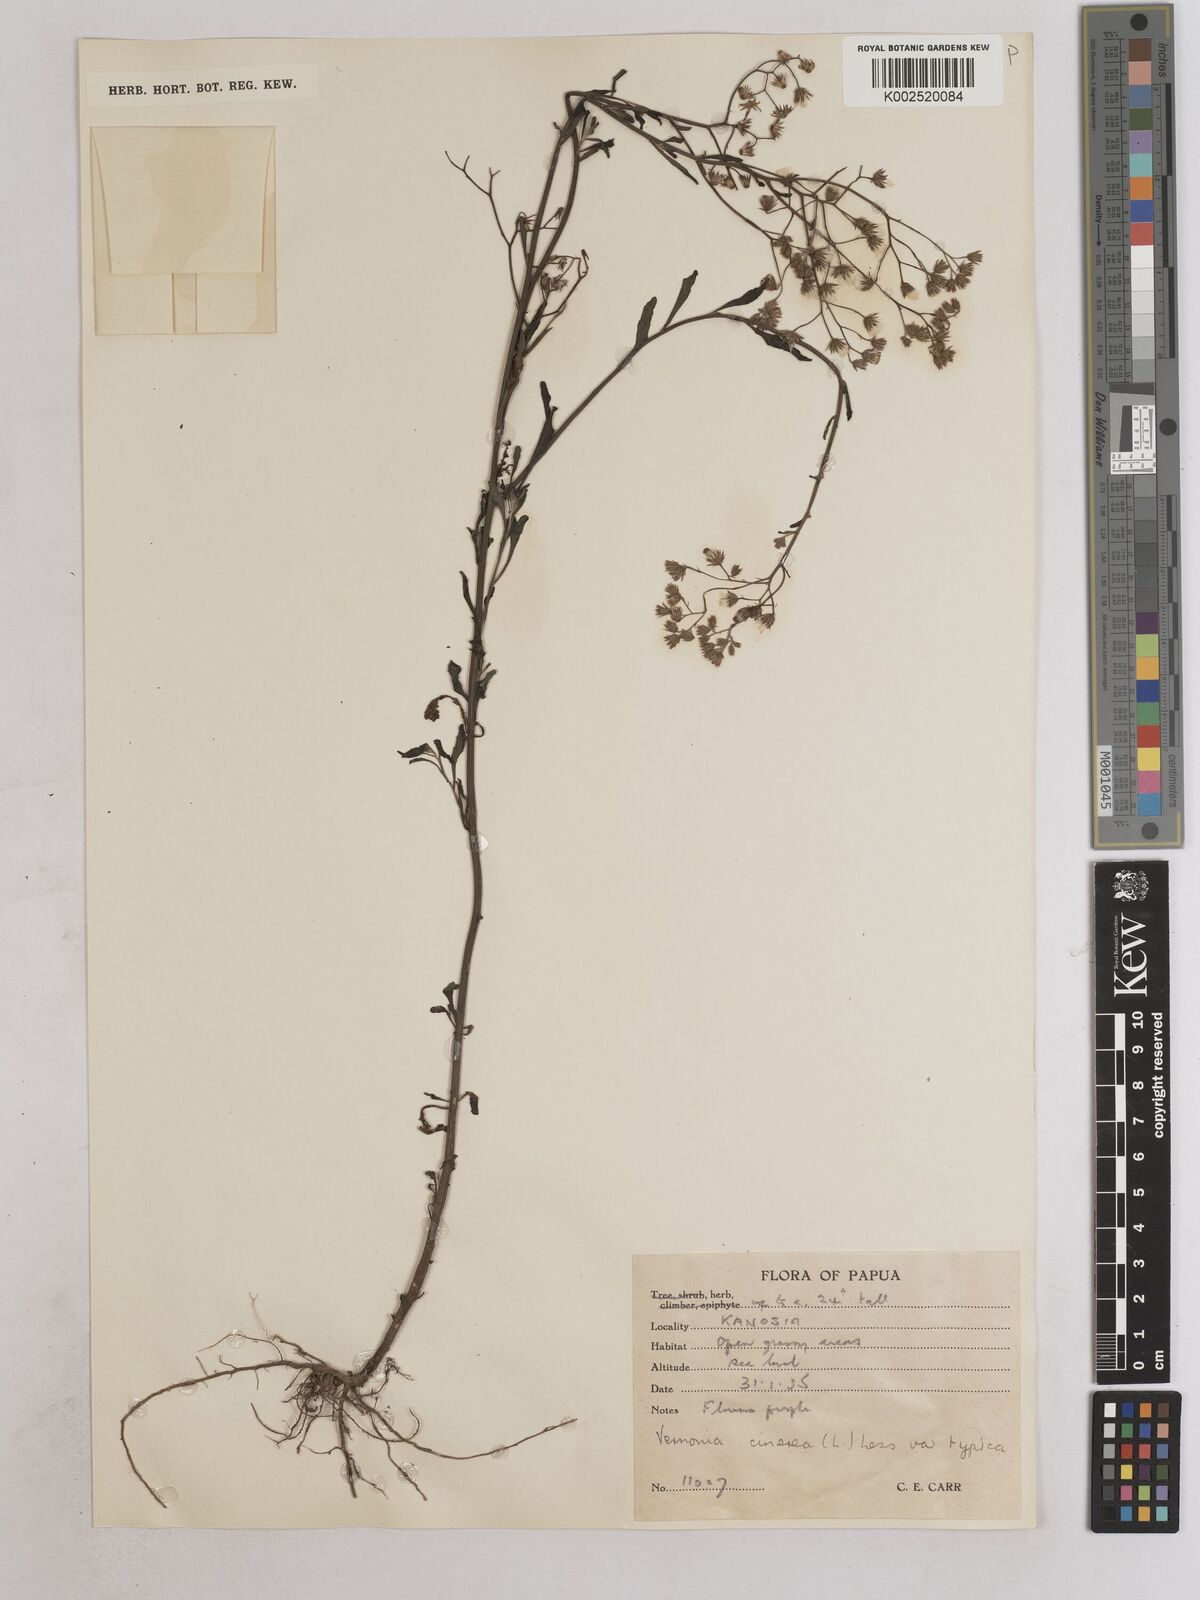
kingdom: Plantae
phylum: Tracheophyta
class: Magnoliopsida
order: Asterales
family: Asteraceae
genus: Cyanthillium
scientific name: Cyanthillium cinereum
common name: Little ironweed
